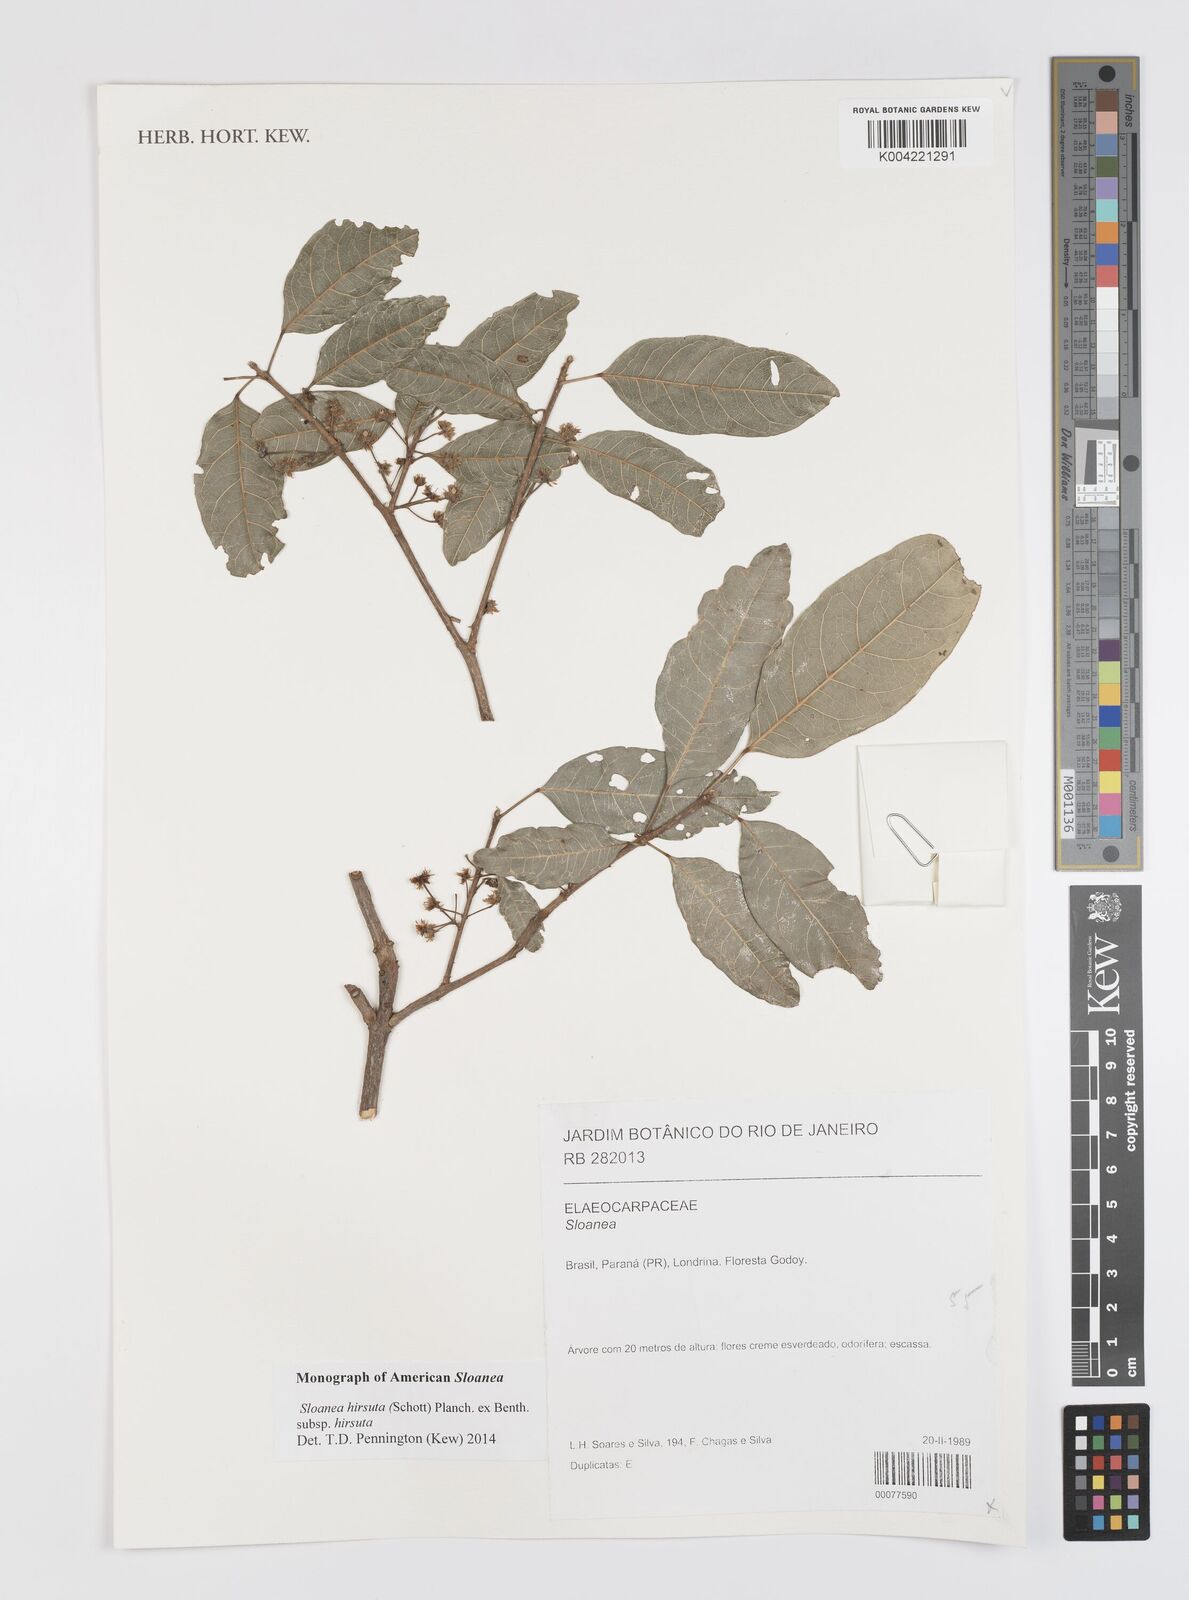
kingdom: Plantae
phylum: Tracheophyta
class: Magnoliopsida
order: Oxalidales
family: Elaeocarpaceae
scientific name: Elaeocarpaceae
